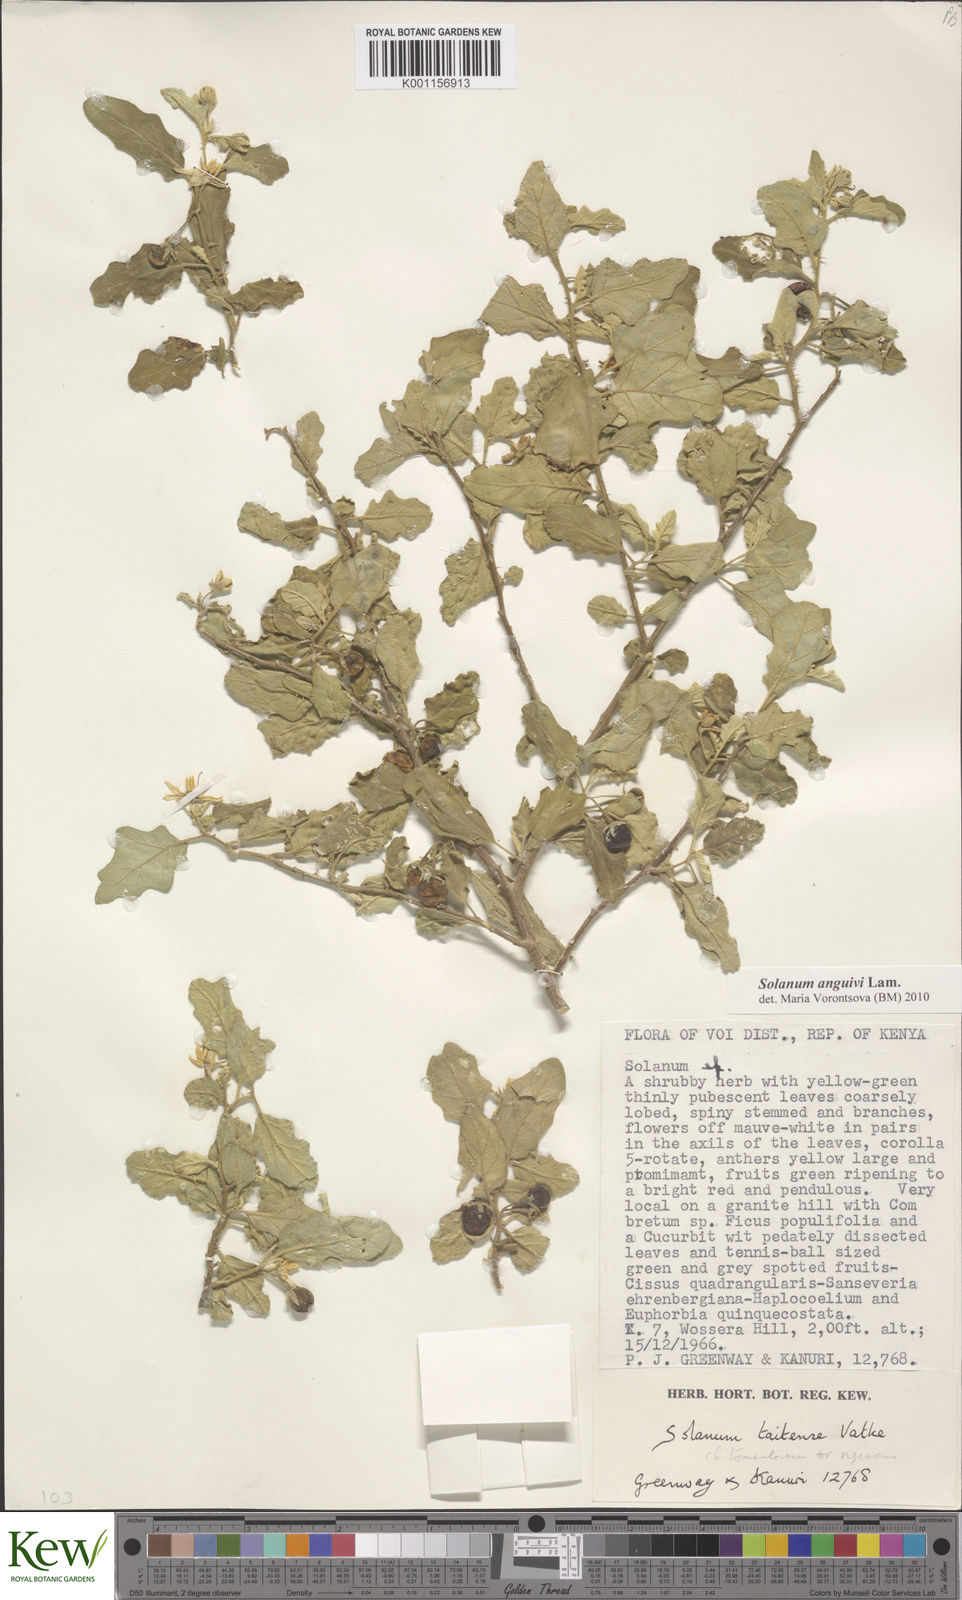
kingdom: Plantae
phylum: Tracheophyta
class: Magnoliopsida
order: Solanales
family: Solanaceae
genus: Solanum
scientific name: Solanum anguivi
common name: Forest bitterberry
